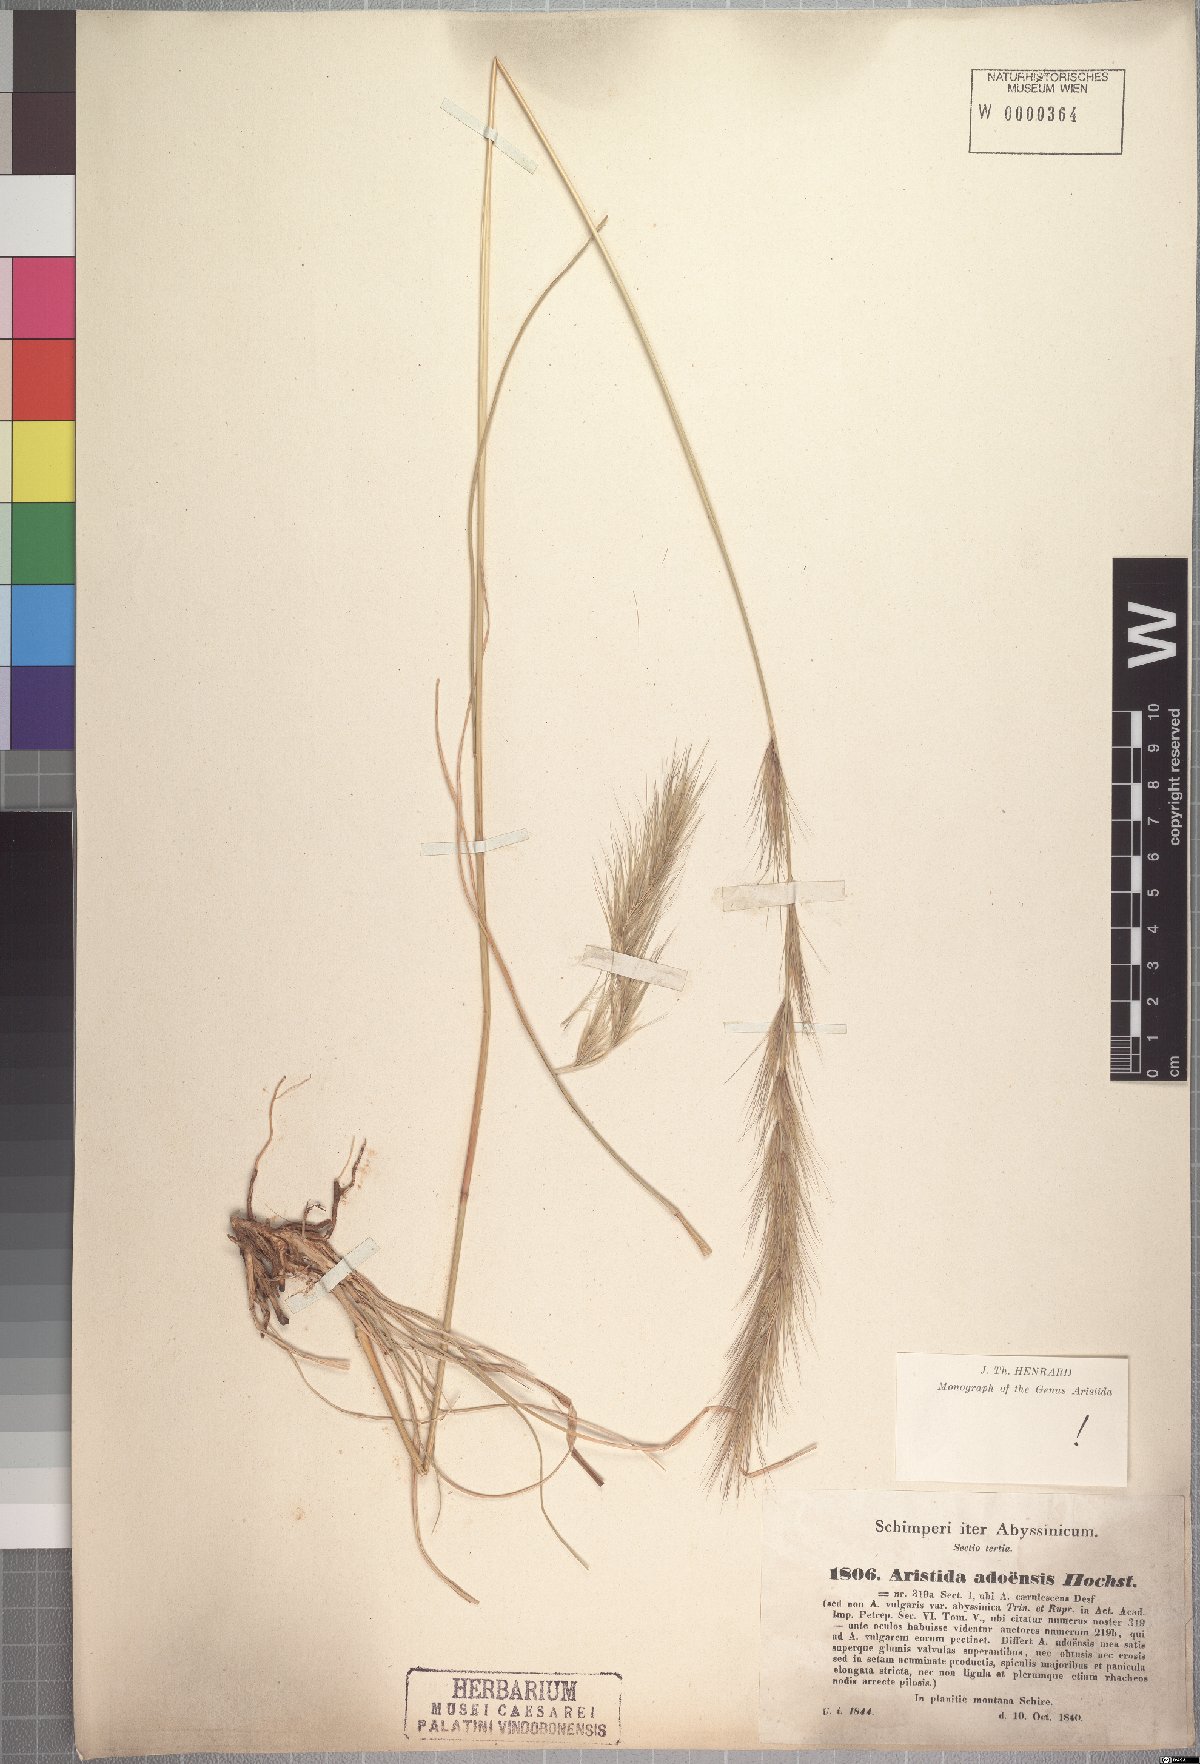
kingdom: Plantae
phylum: Tracheophyta
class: Liliopsida
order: Poales
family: Poaceae
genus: Aristida
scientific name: Aristida adoensis
